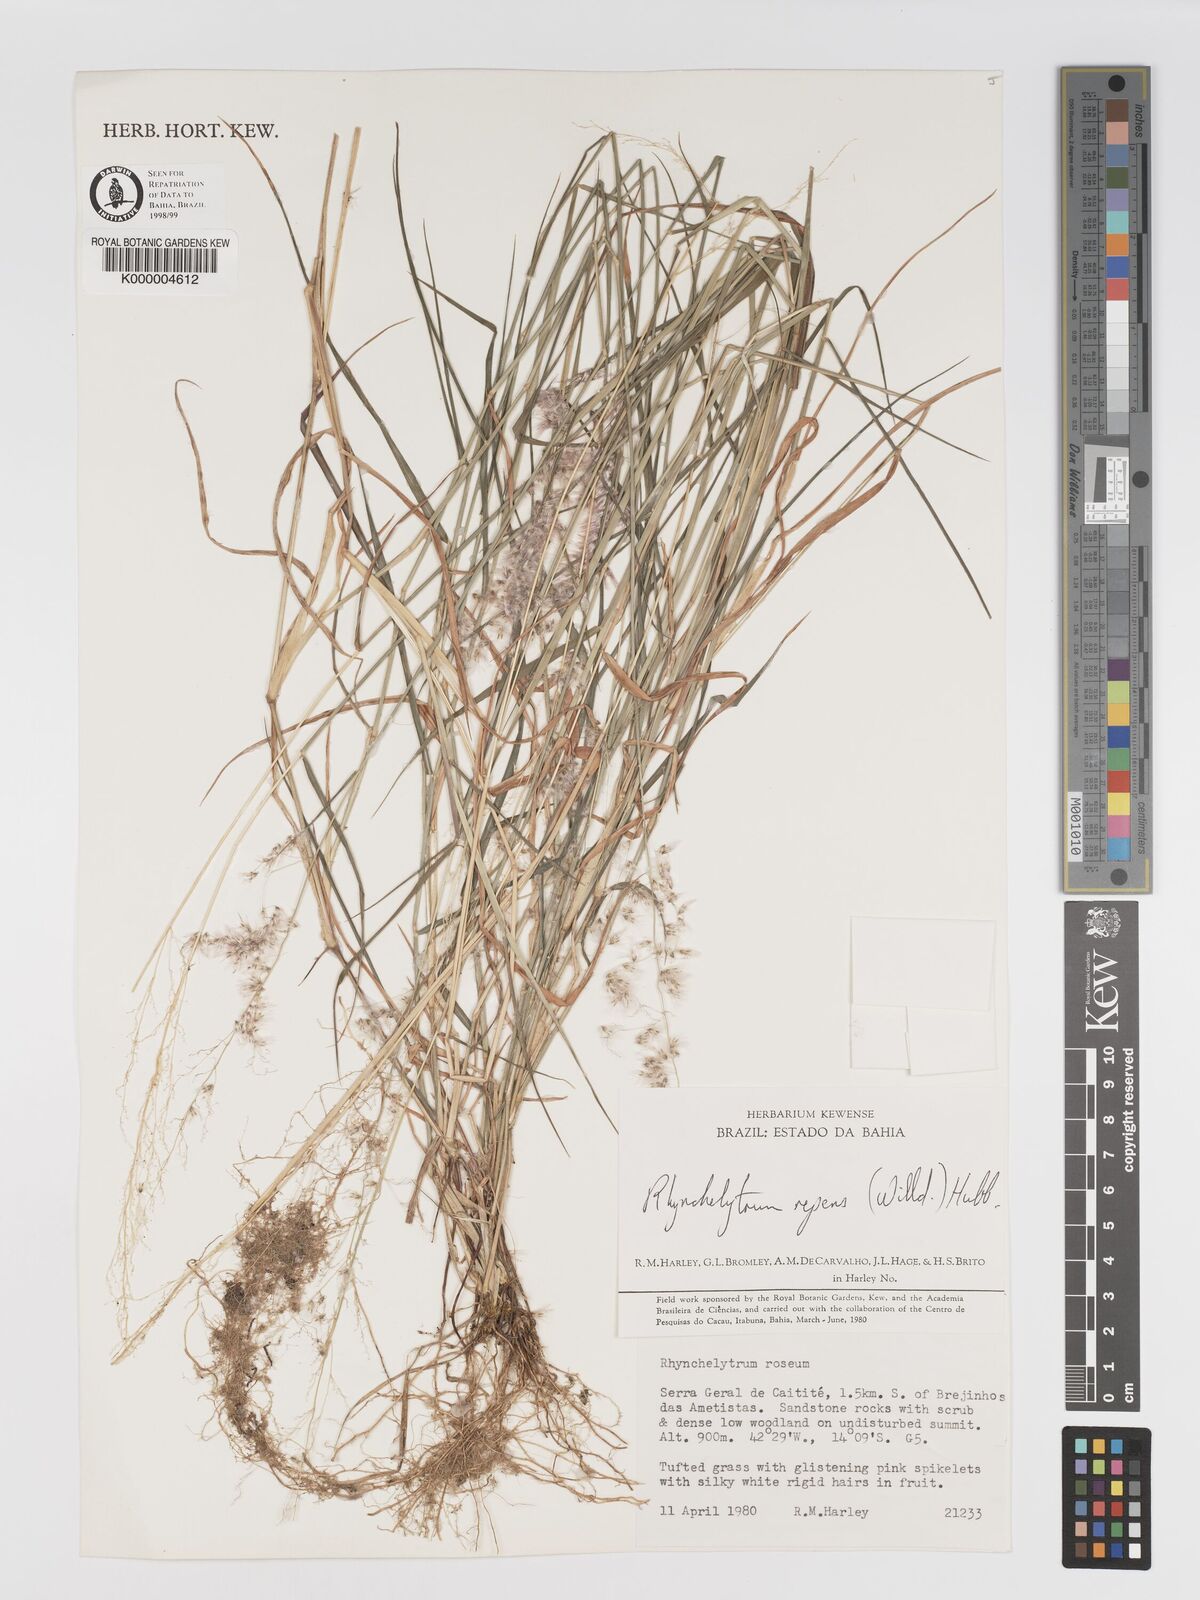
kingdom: Plantae
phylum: Tracheophyta
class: Liliopsida
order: Poales
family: Poaceae
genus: Melinis
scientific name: Melinis repens
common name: Rose natal grass
